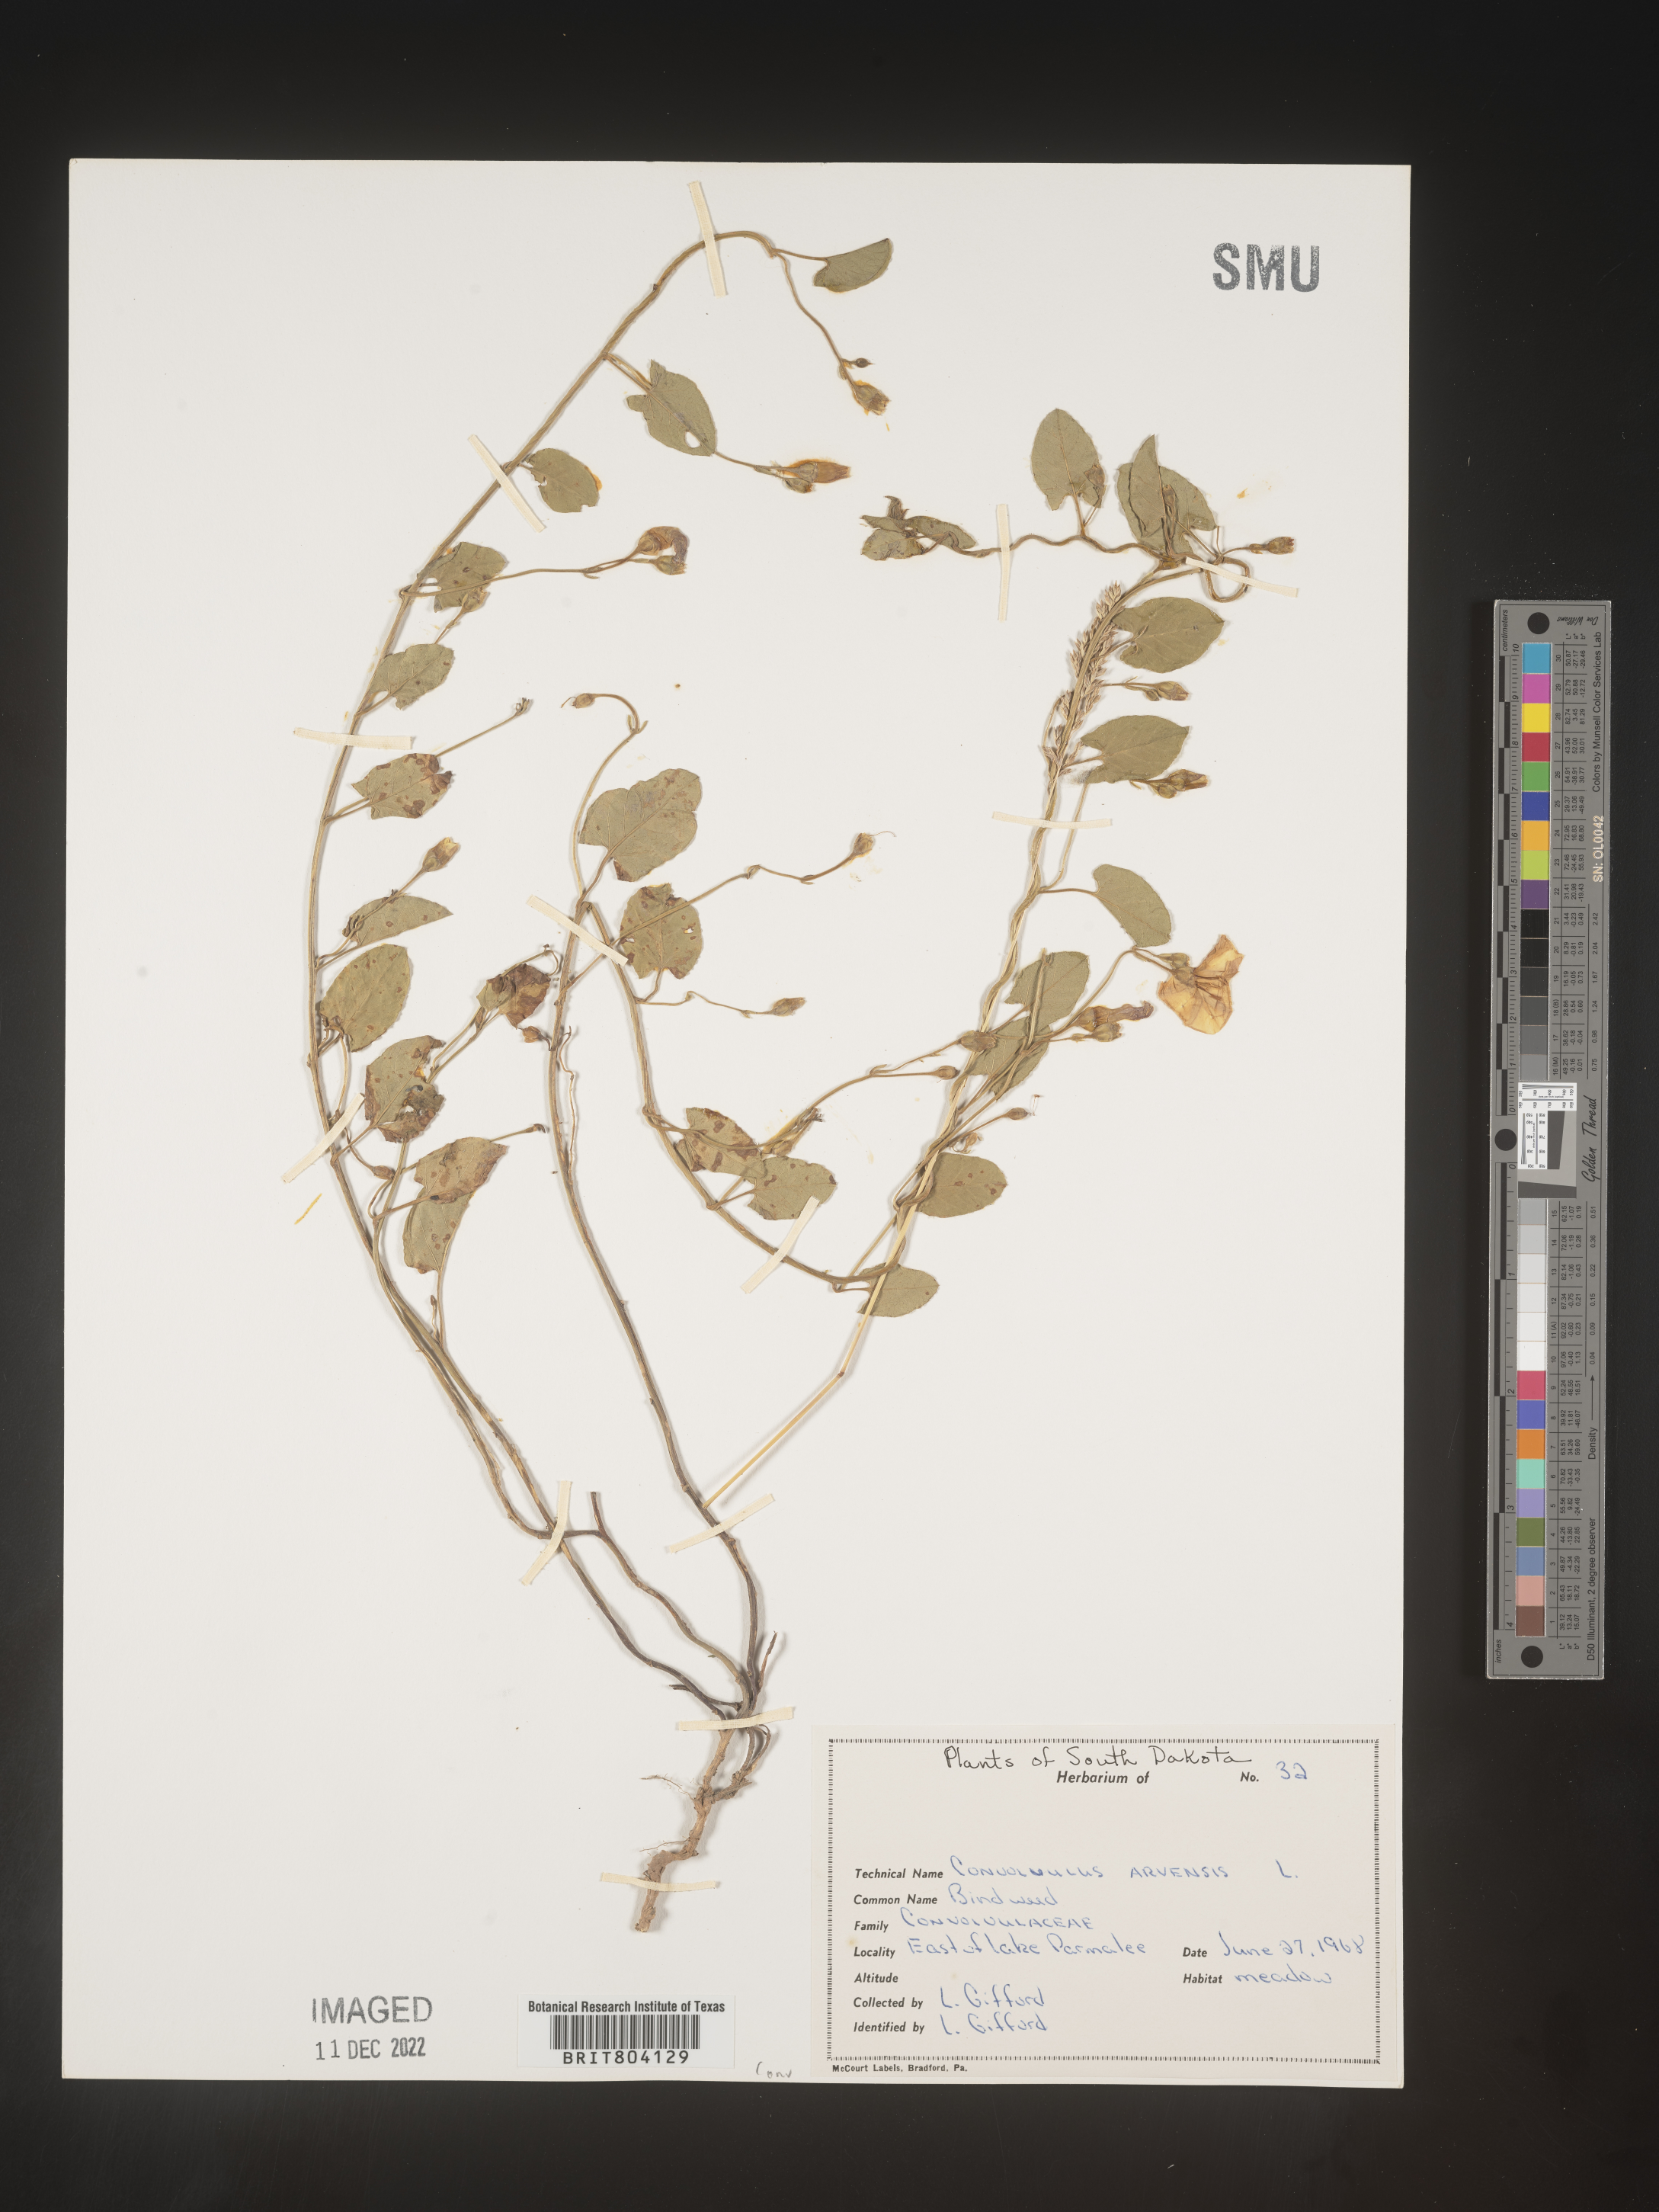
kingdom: Plantae
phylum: Tracheophyta
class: Magnoliopsida
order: Solanales
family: Convolvulaceae
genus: Convolvulus
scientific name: Convolvulus arvensis
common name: Field bindweed
